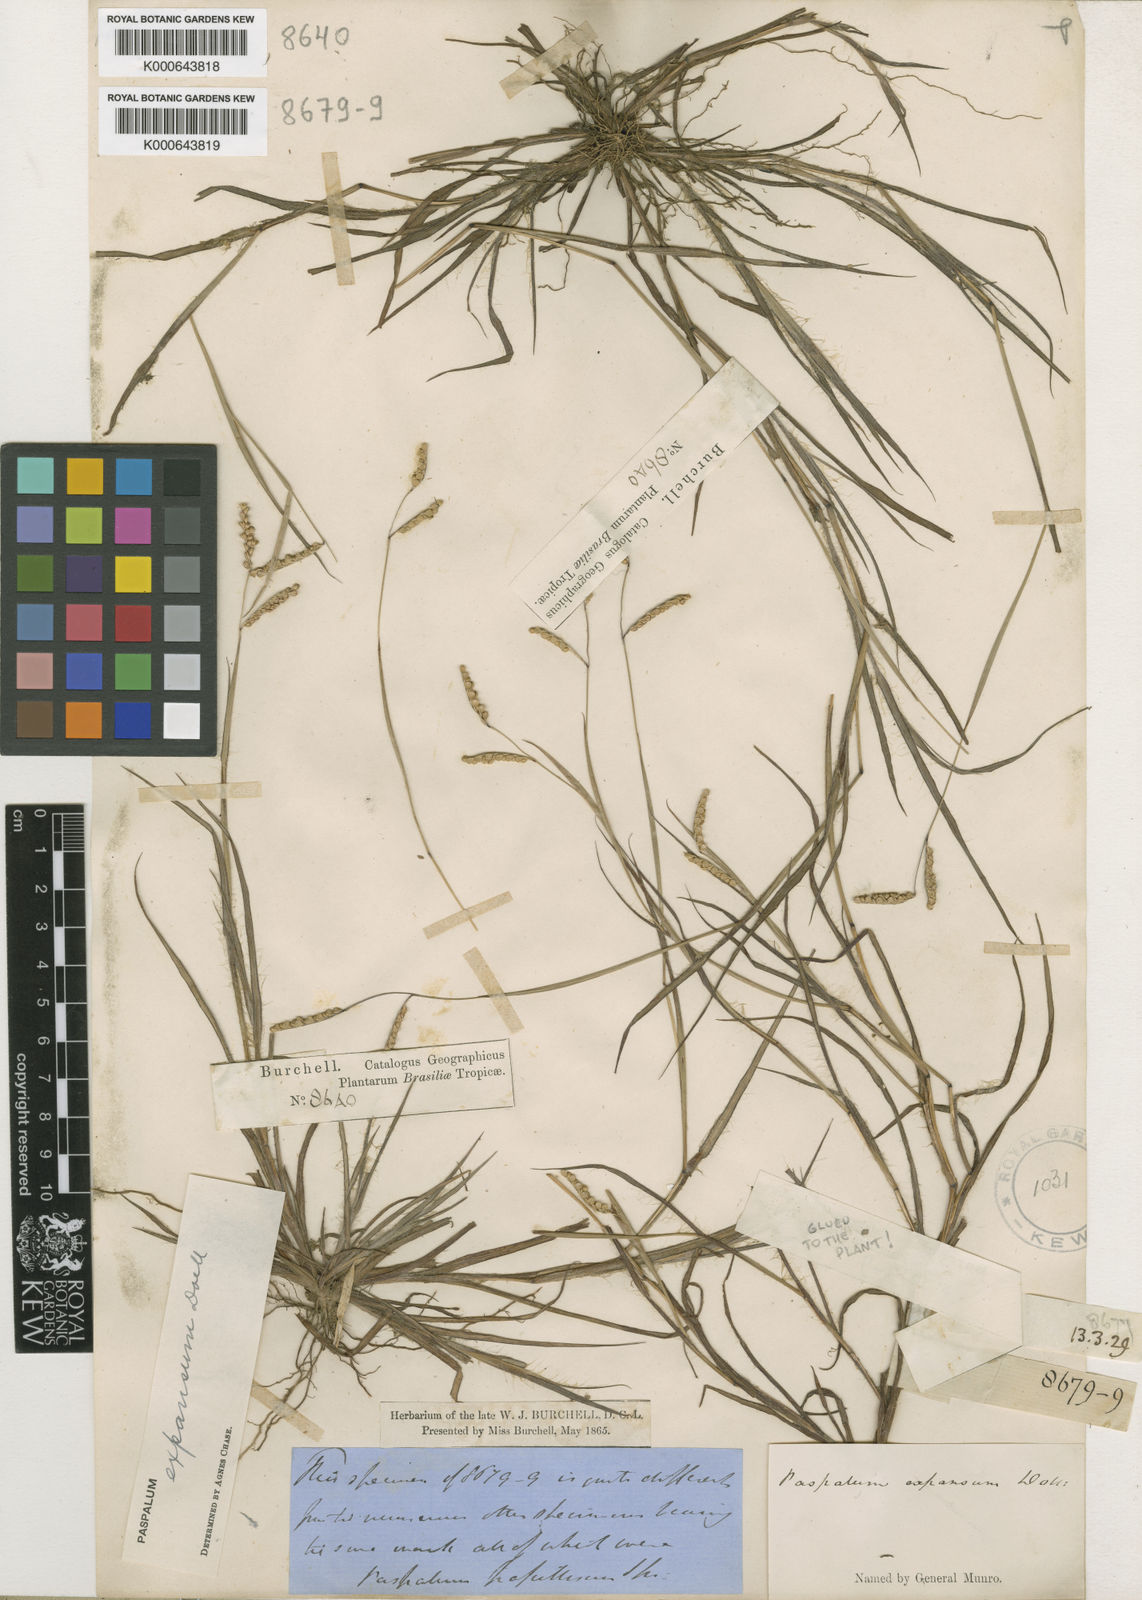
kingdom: Plantae
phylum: Tracheophyta
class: Liliopsida
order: Poales
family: Poaceae
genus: Paspalum
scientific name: Paspalum
